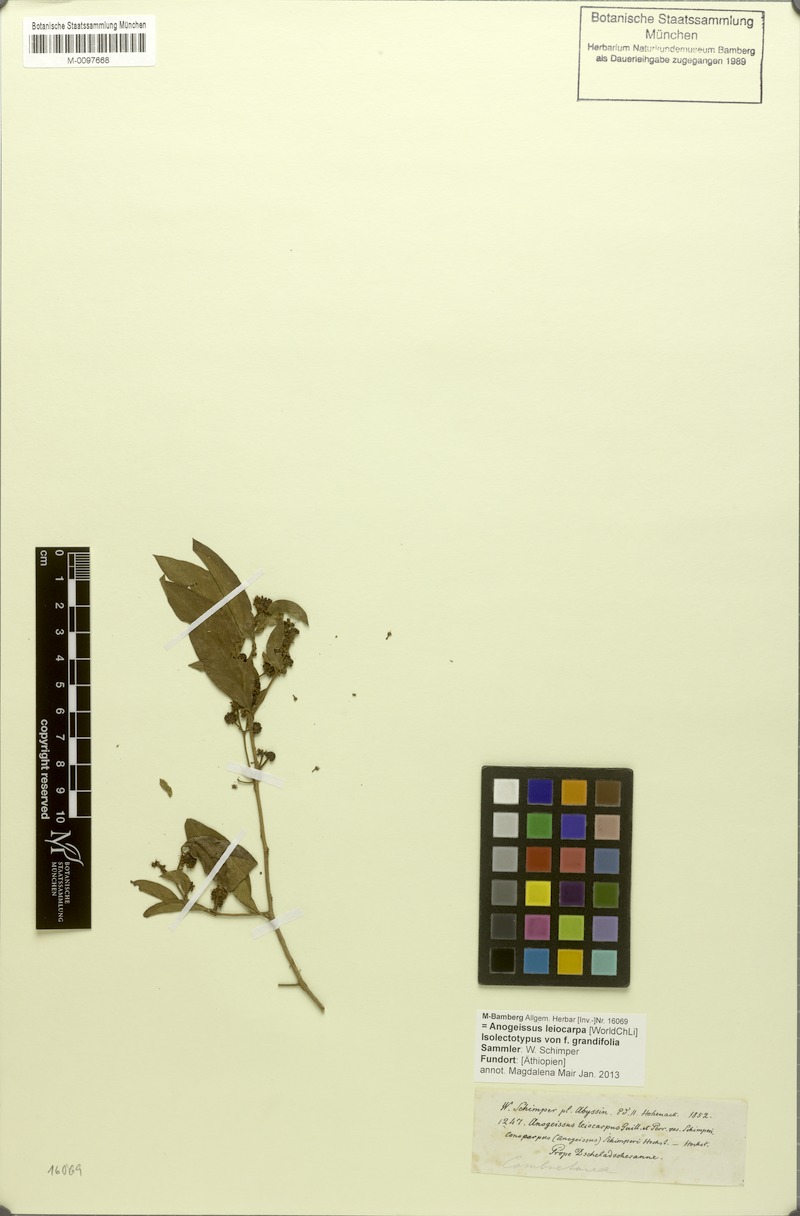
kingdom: Plantae
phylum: Tracheophyta
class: Magnoliopsida
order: Myrtales
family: Combretaceae
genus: Terminalia
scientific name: Terminalia leiocarpa
